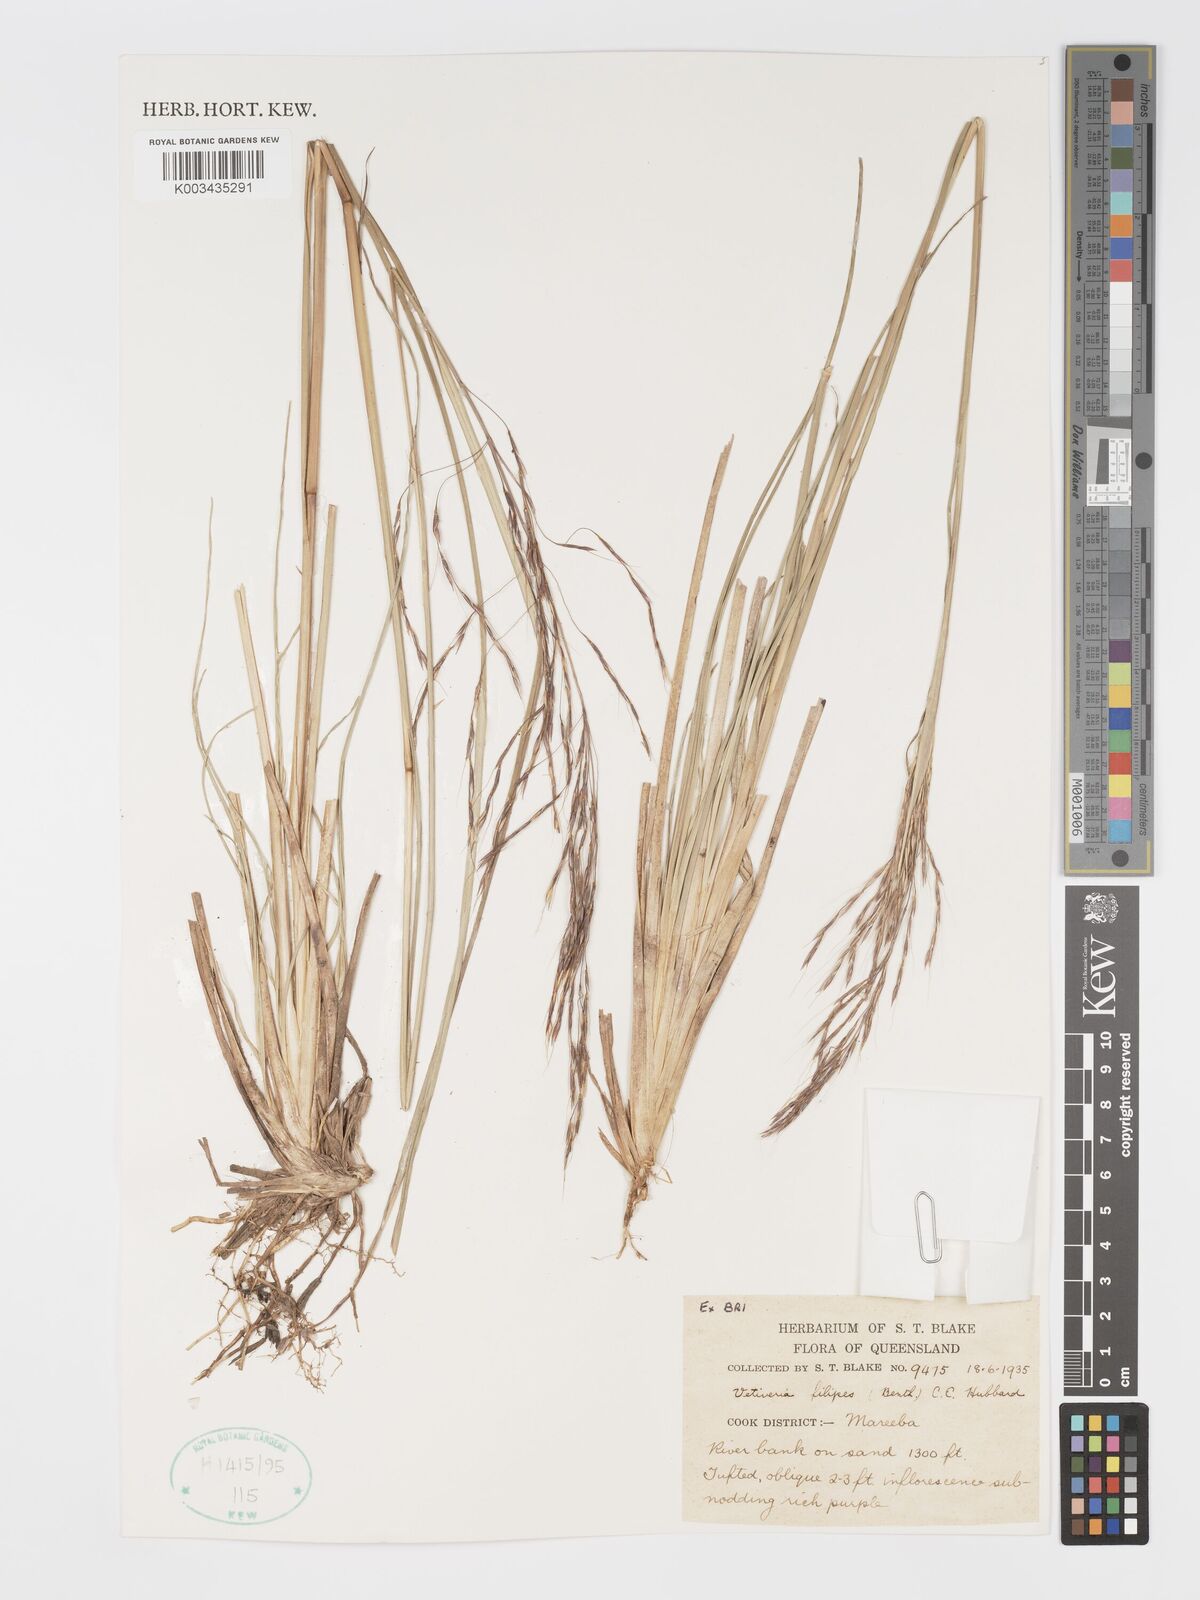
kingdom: Plantae
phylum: Tracheophyta
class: Liliopsida
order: Poales
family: Poaceae
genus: Chrysopogon
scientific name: Chrysopogon filipes
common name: Australian vetiver
